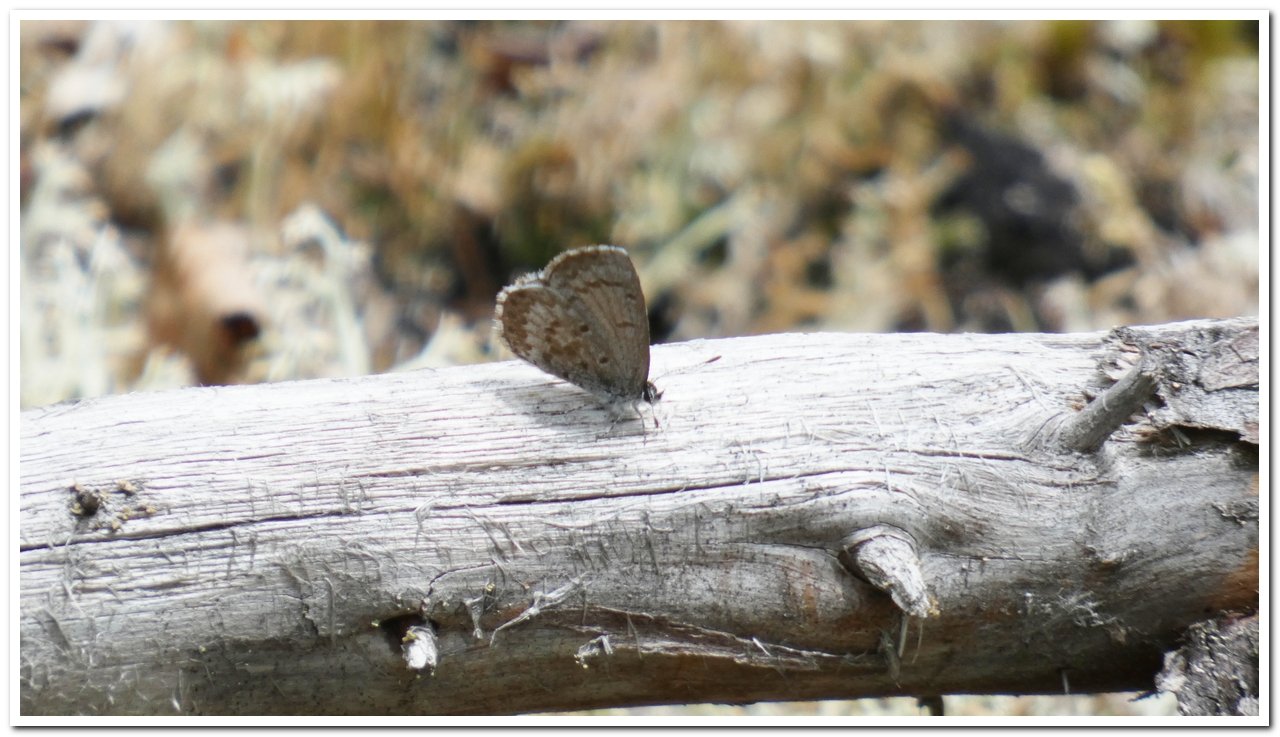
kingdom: Animalia
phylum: Arthropoda
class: Insecta
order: Lepidoptera
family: Lycaenidae
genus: Celastrina
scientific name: Celastrina lucia
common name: Northern Spring Azure
